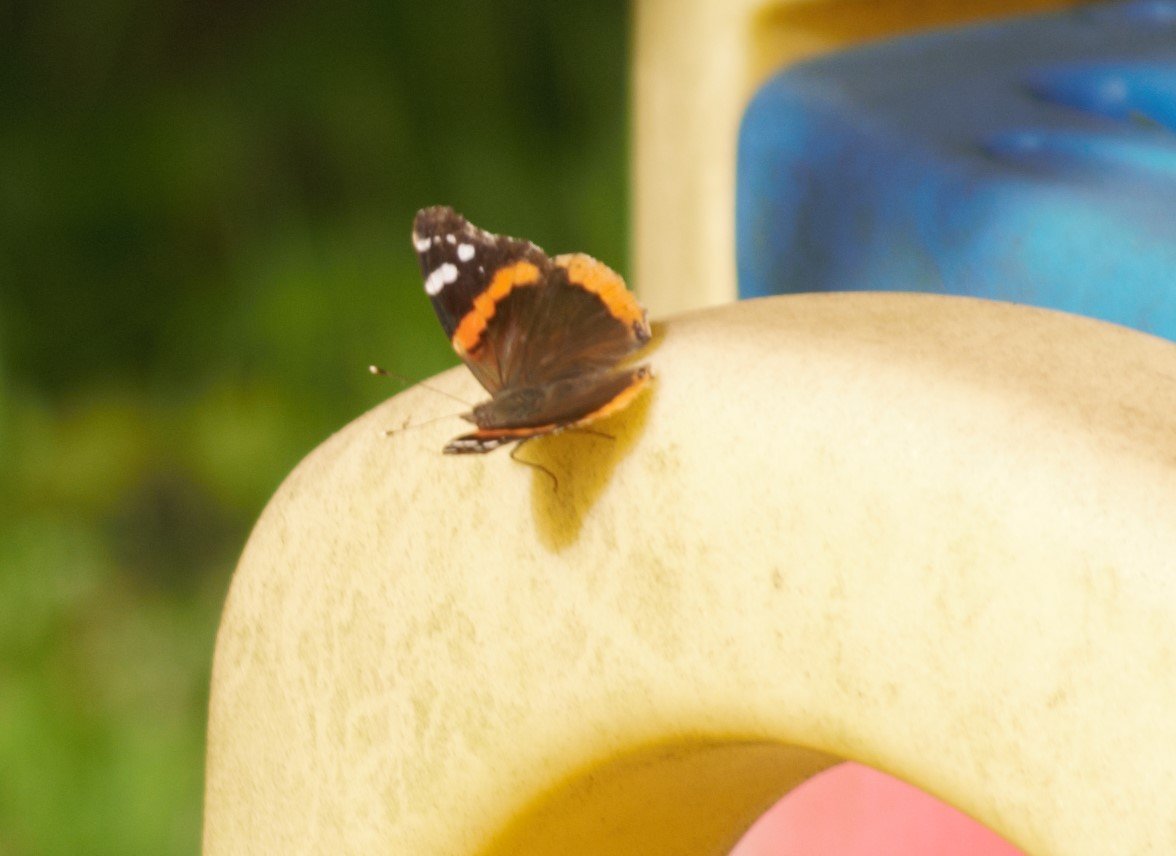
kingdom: Animalia
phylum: Arthropoda
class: Insecta
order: Lepidoptera
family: Nymphalidae
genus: Vanessa
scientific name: Vanessa atalanta
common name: Red Admiral
